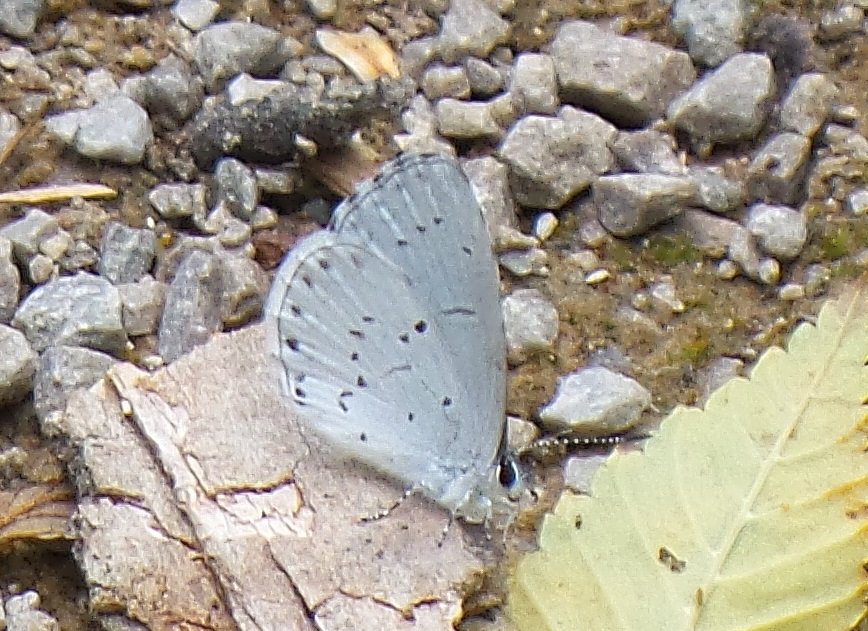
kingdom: Animalia
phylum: Arthropoda
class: Insecta
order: Lepidoptera
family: Lycaenidae
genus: Celastrina
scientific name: Celastrina
